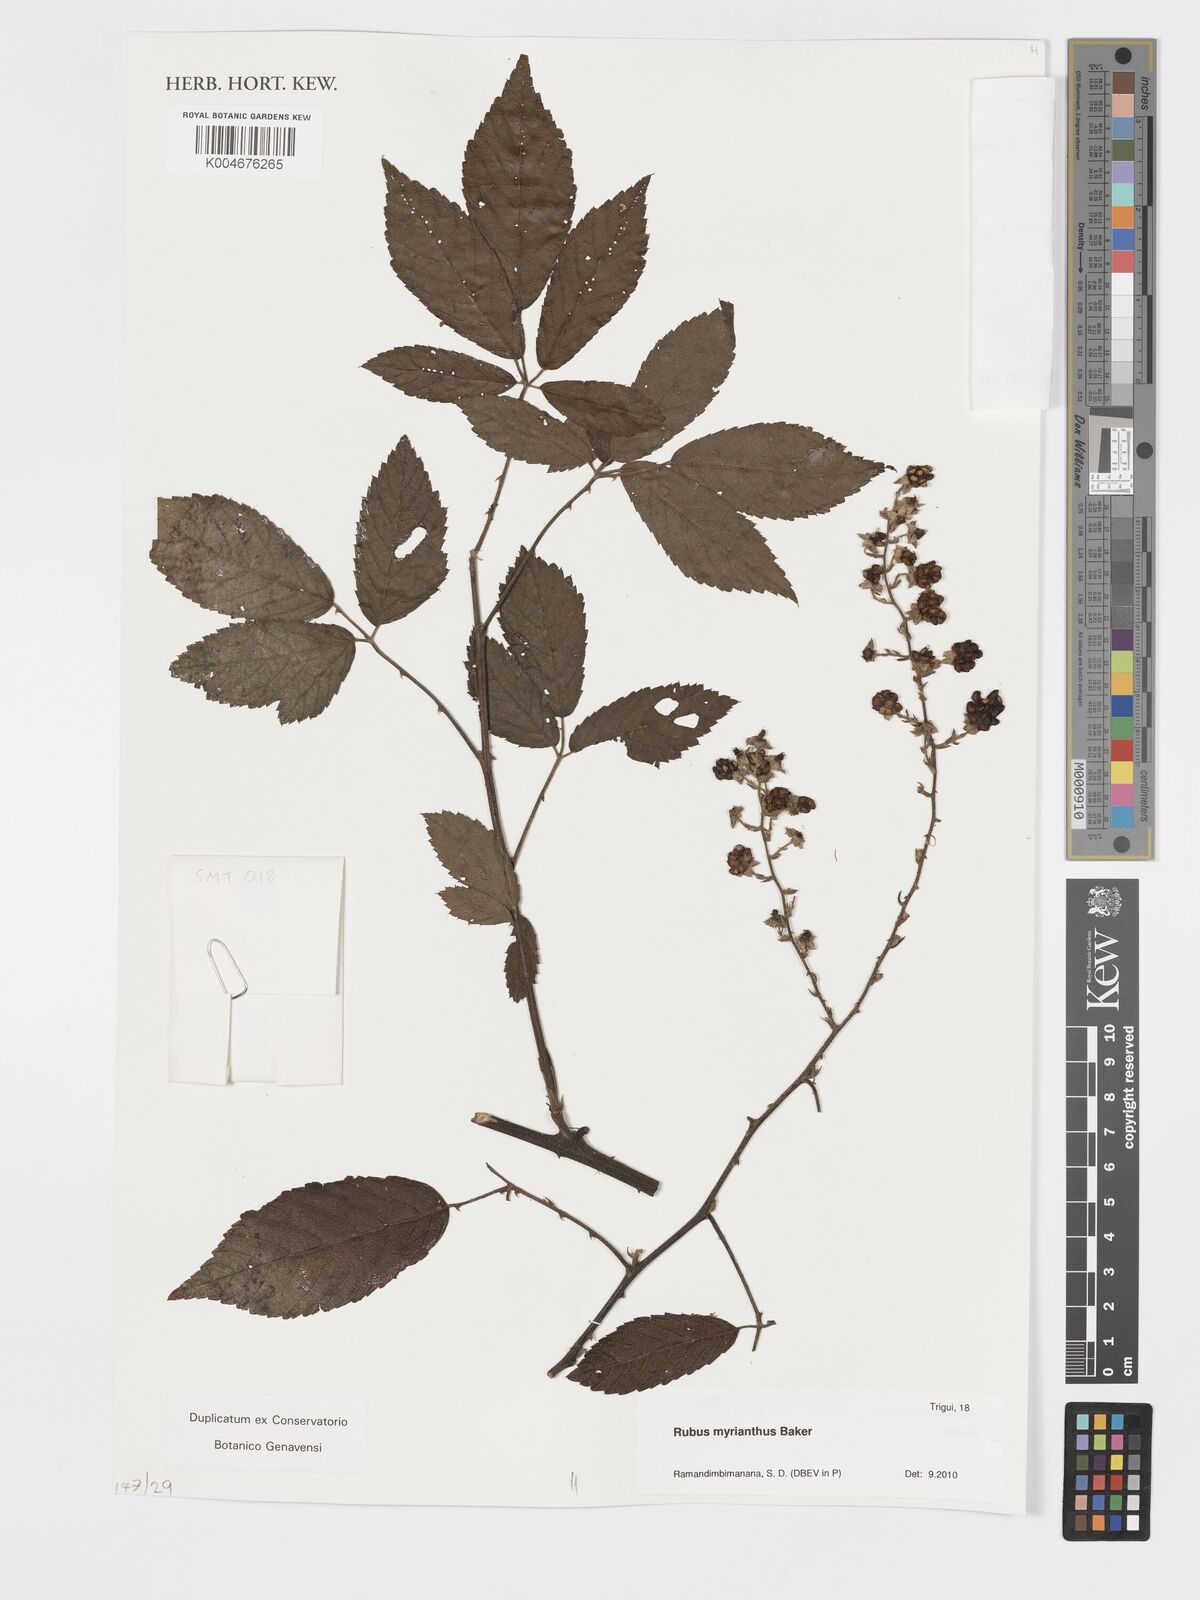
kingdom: Plantae
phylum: Tracheophyta
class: Magnoliopsida
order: Rosales
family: Rosaceae
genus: Rubus
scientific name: Rubus
